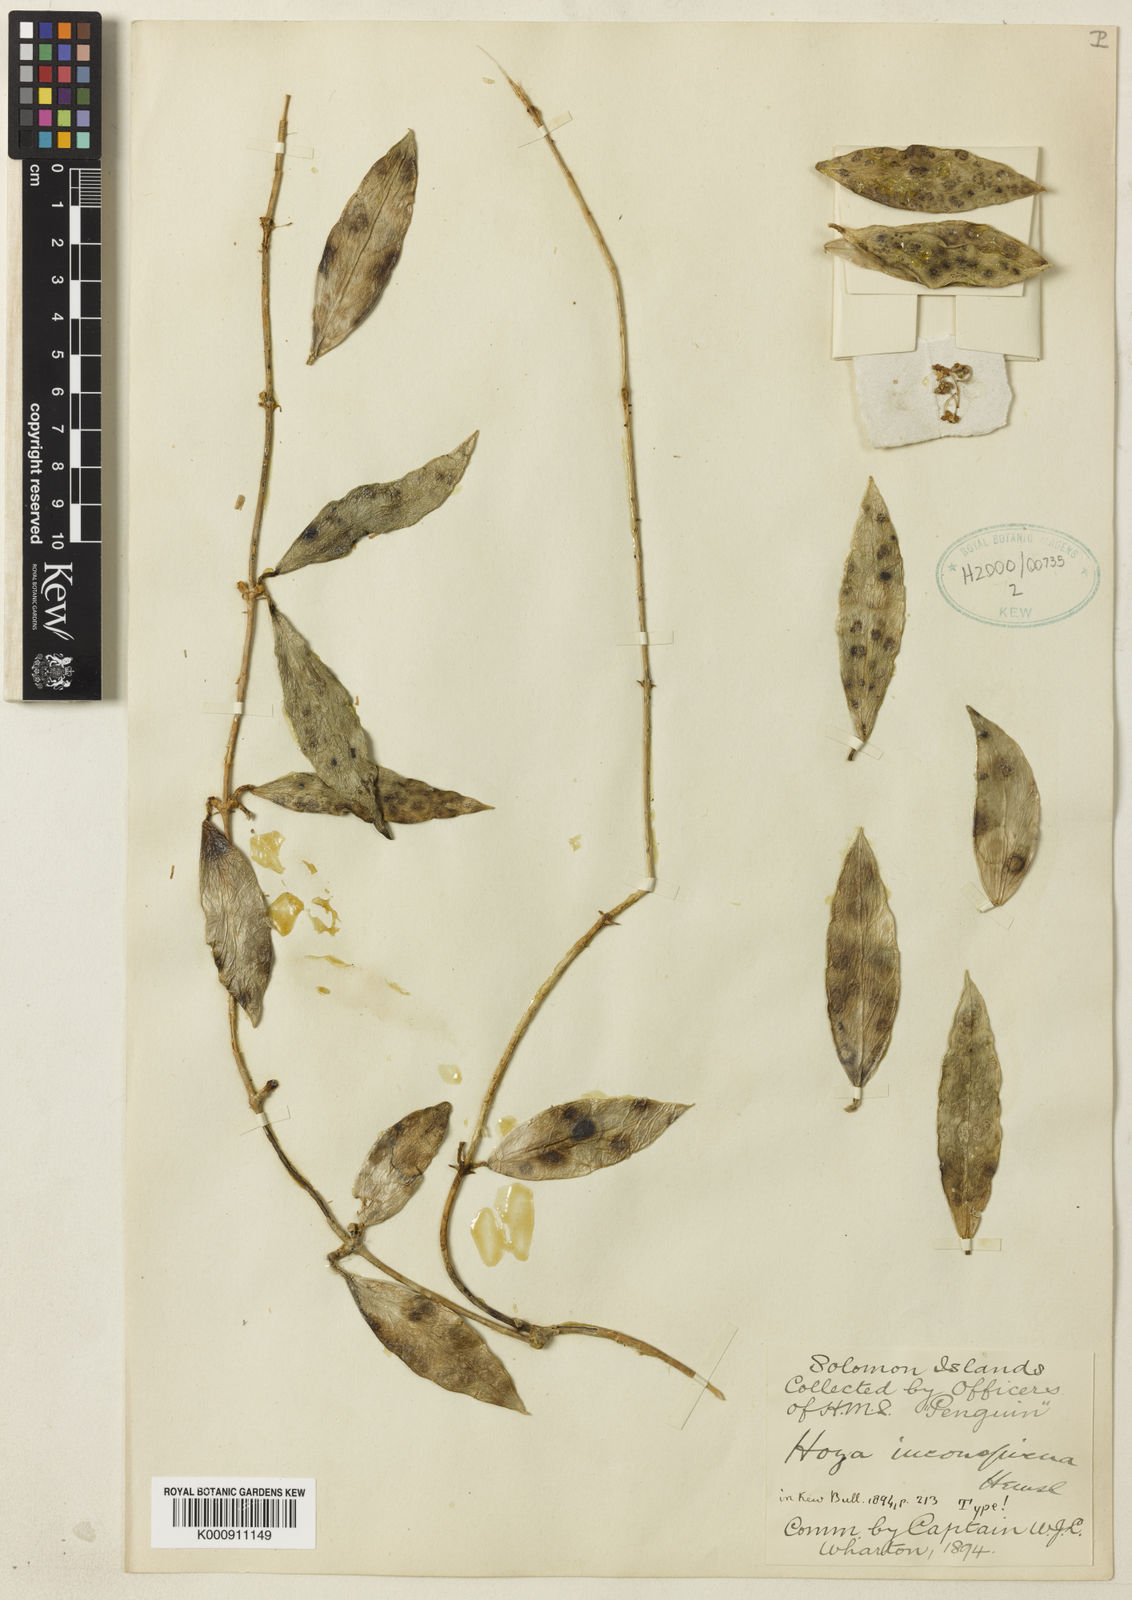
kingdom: Plantae
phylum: Tracheophyta
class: Magnoliopsida
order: Gentianales
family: Apocynaceae
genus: Hoya
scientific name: Hoya inconspicua
